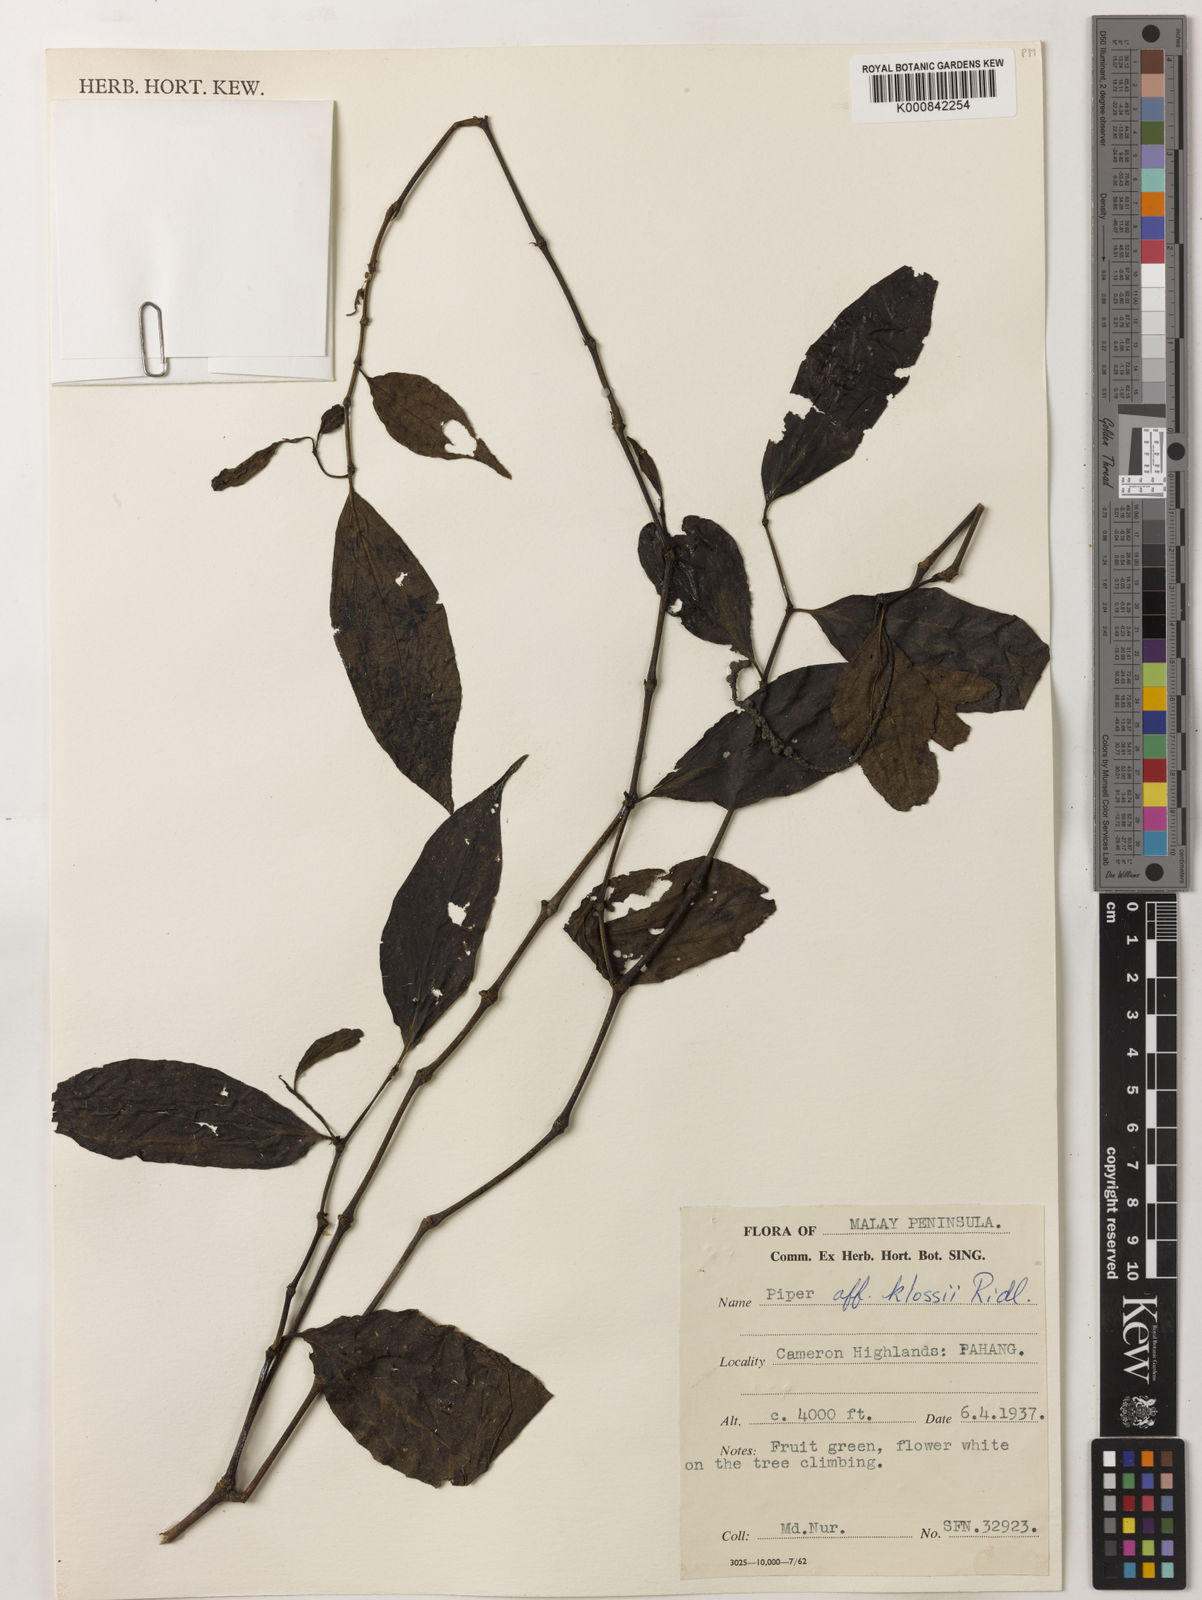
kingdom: Plantae
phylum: Tracheophyta
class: Magnoliopsida
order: Piperales
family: Piperaceae
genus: Piper
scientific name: Piper klossii
